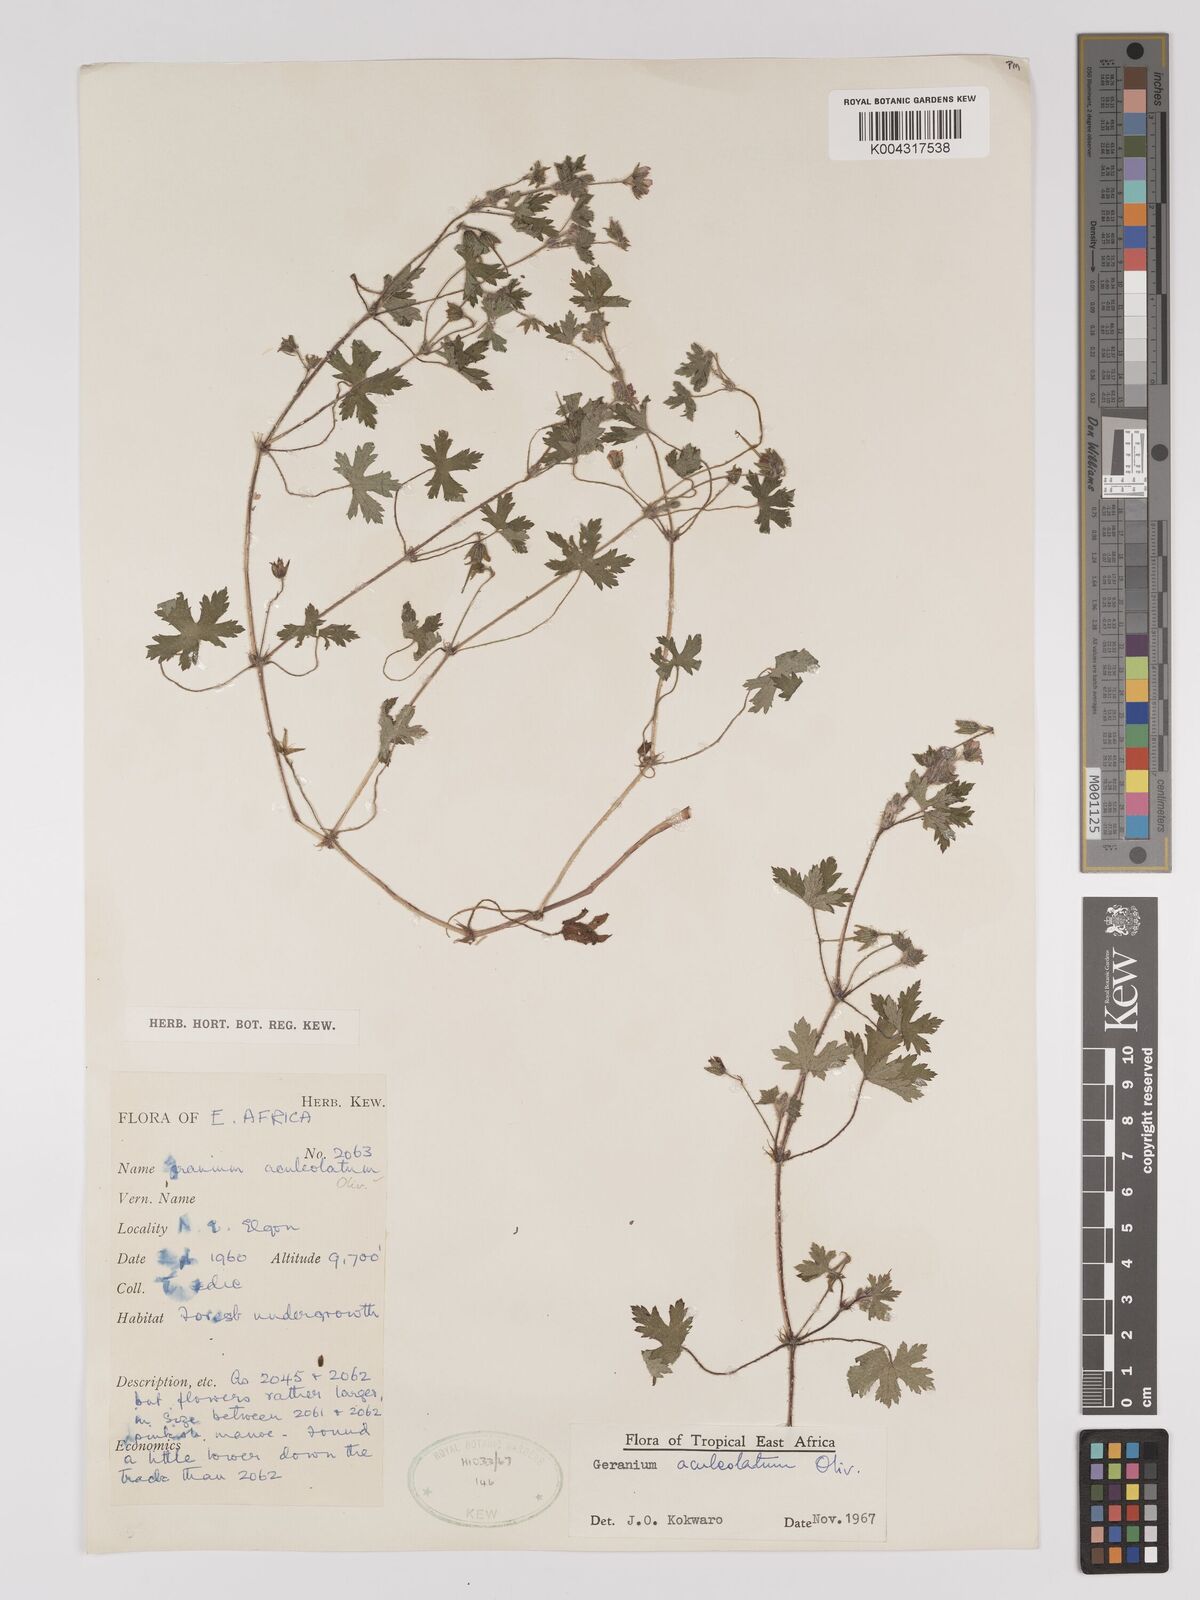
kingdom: Plantae
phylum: Tracheophyta
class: Magnoliopsida
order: Geraniales
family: Geraniaceae
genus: Geranium
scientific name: Geranium aculeolatum
